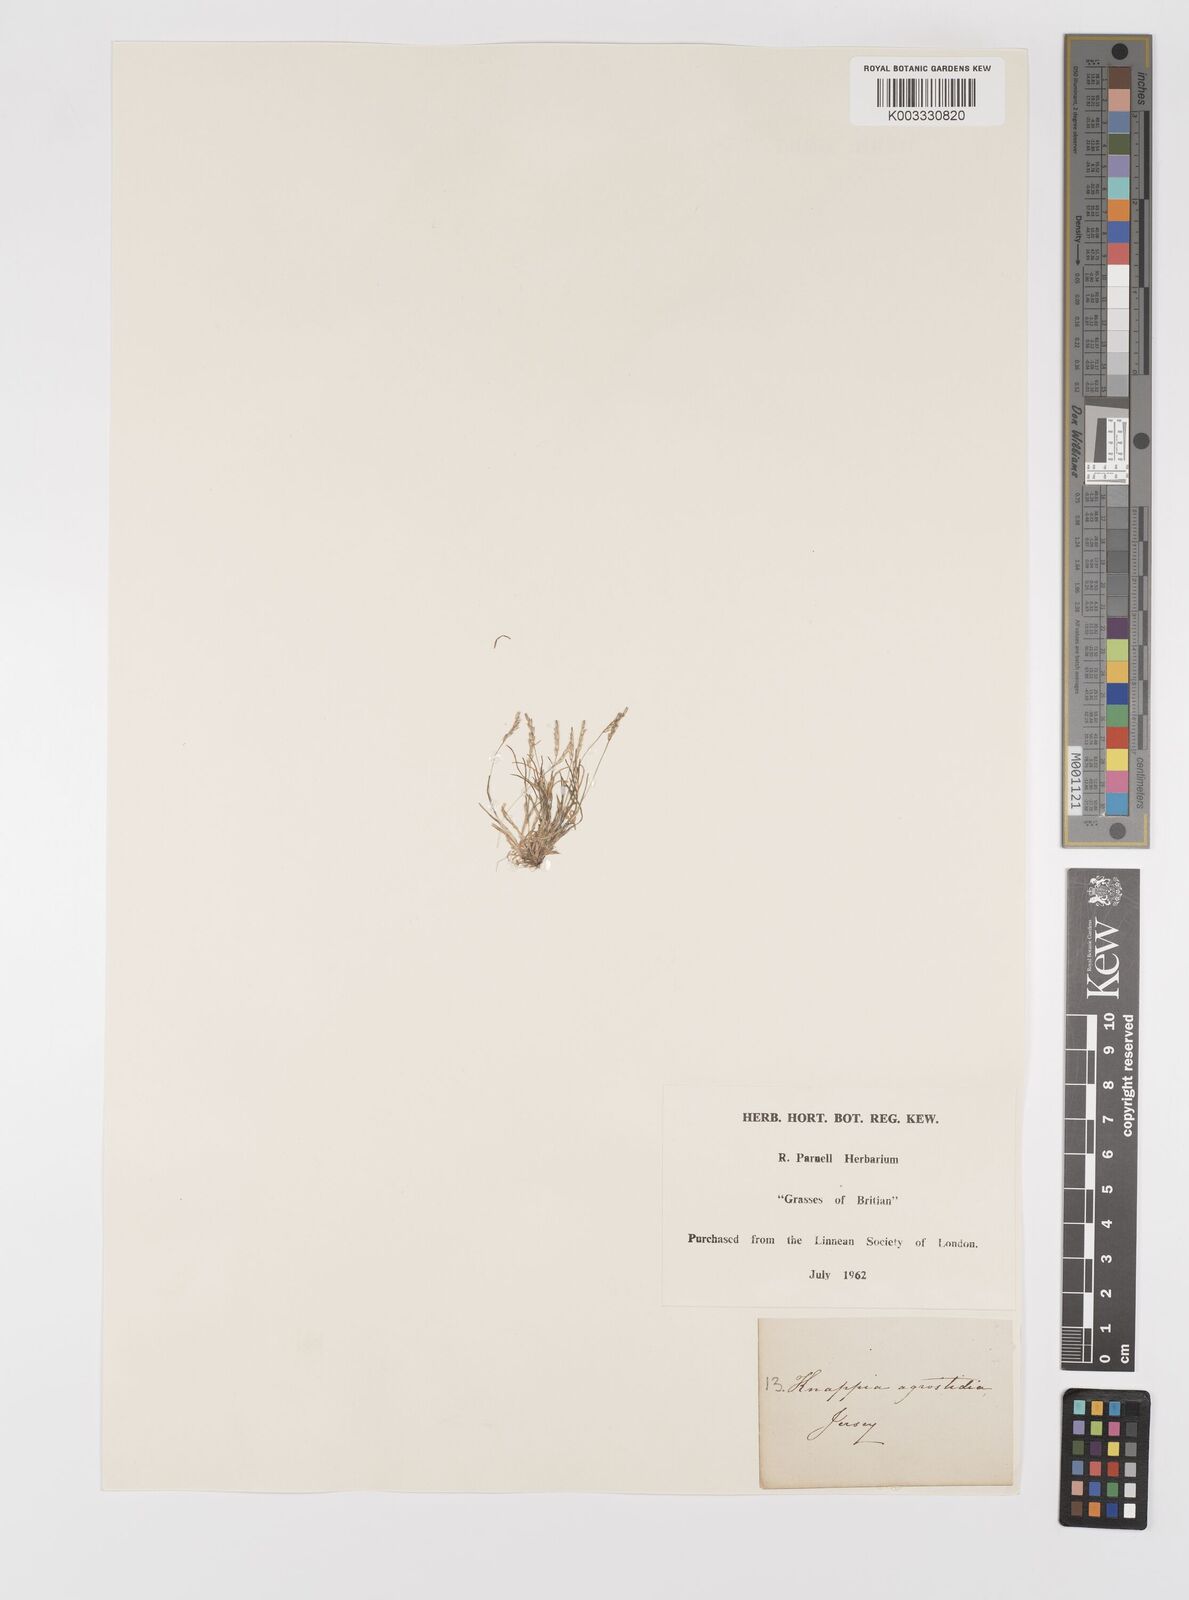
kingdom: Plantae
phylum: Tracheophyta
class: Liliopsida
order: Poales
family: Poaceae
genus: Mibora
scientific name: Mibora minima
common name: Early sand-grass
